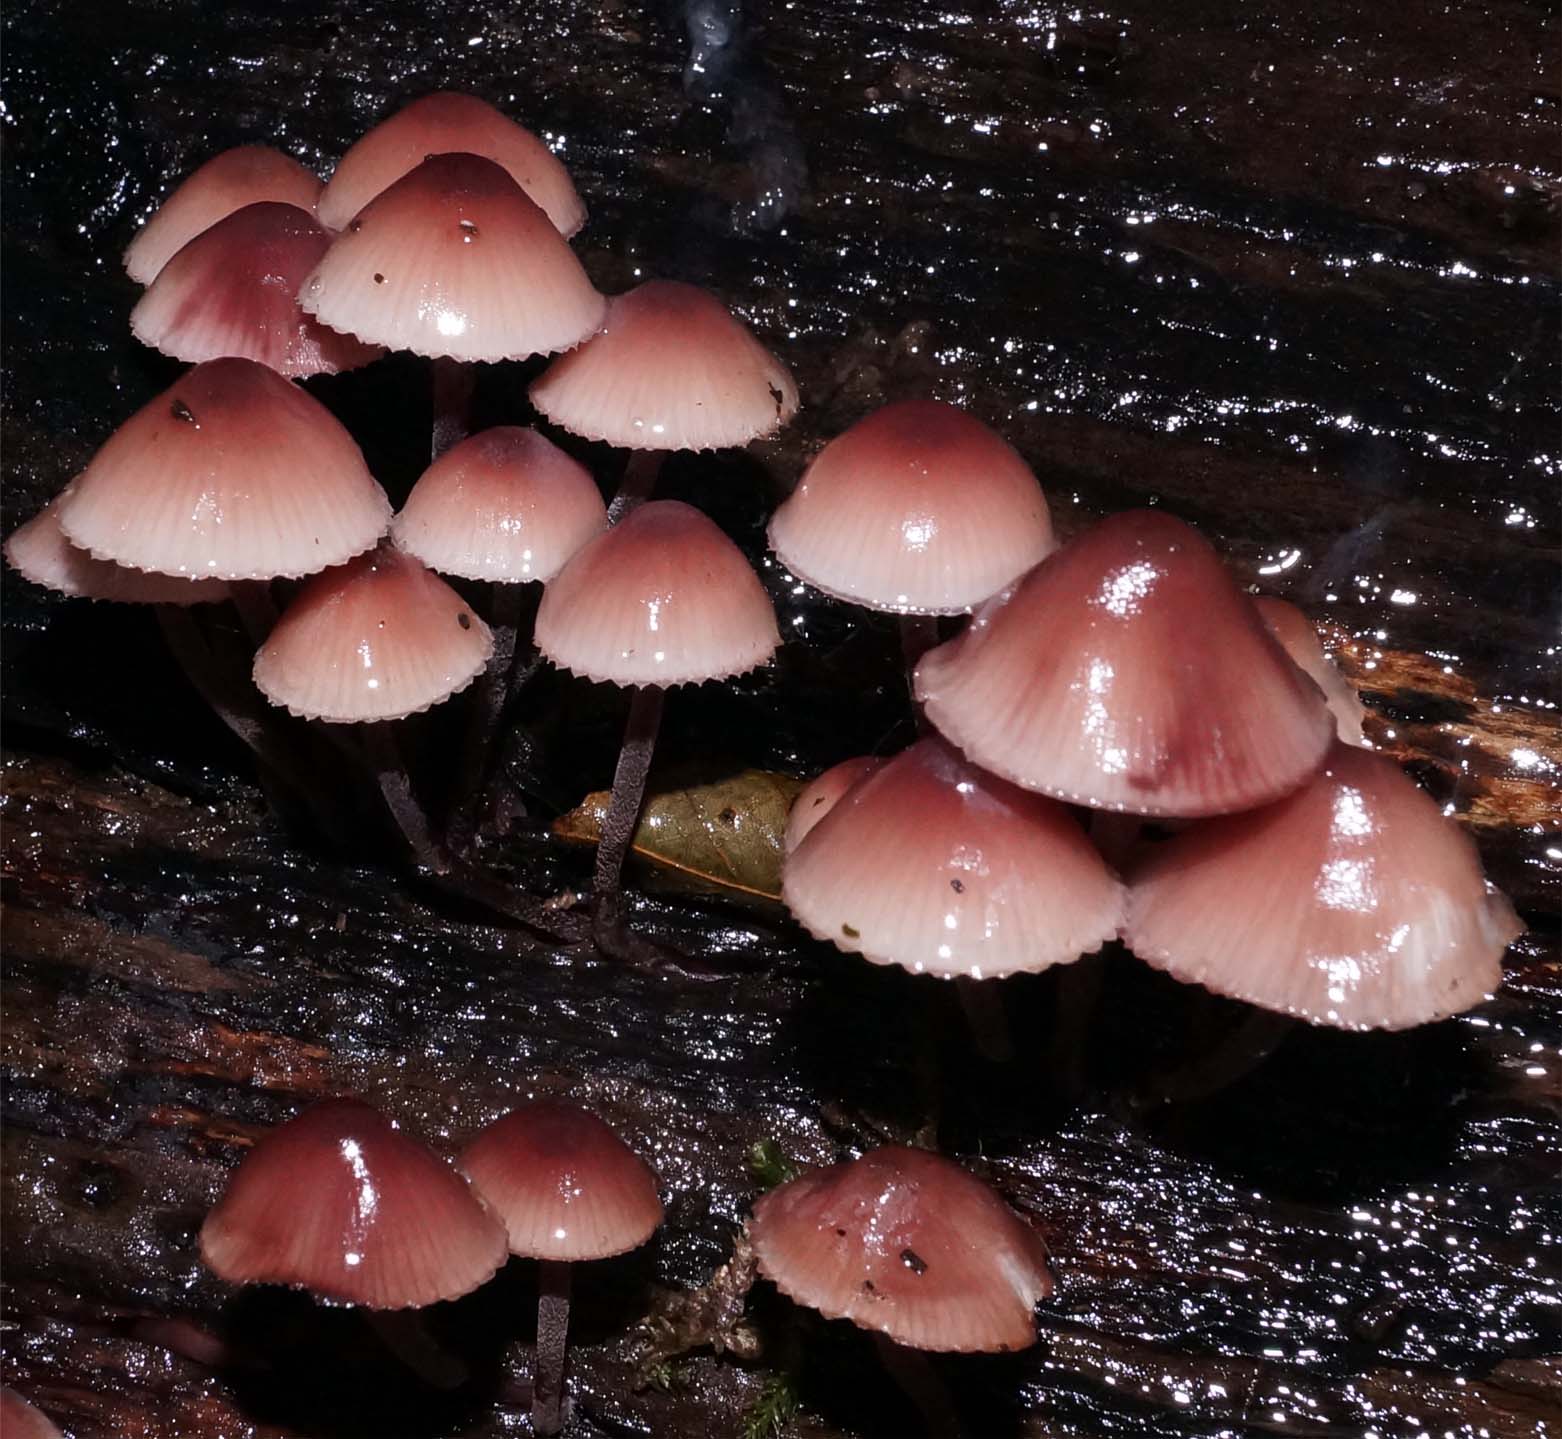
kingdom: Fungi
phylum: Basidiomycota
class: Agaricomycetes
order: Agaricales
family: Mycenaceae
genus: Mycena
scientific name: Mycena haematopus
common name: blødende huesvamp
